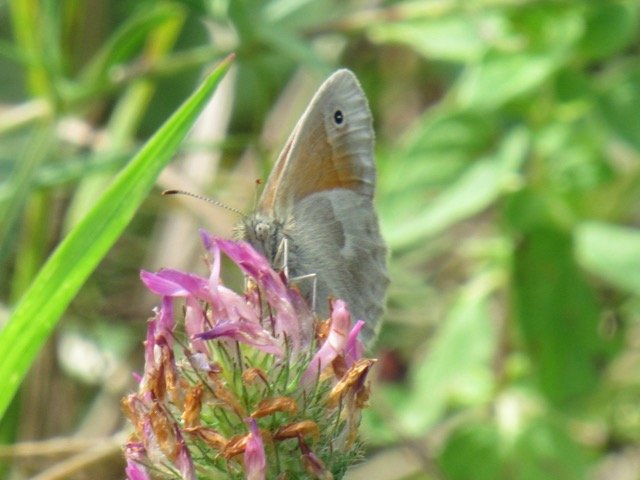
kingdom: Animalia
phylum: Arthropoda
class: Insecta
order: Lepidoptera
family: Nymphalidae
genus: Coenonympha
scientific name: Coenonympha tullia
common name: Large Heath
